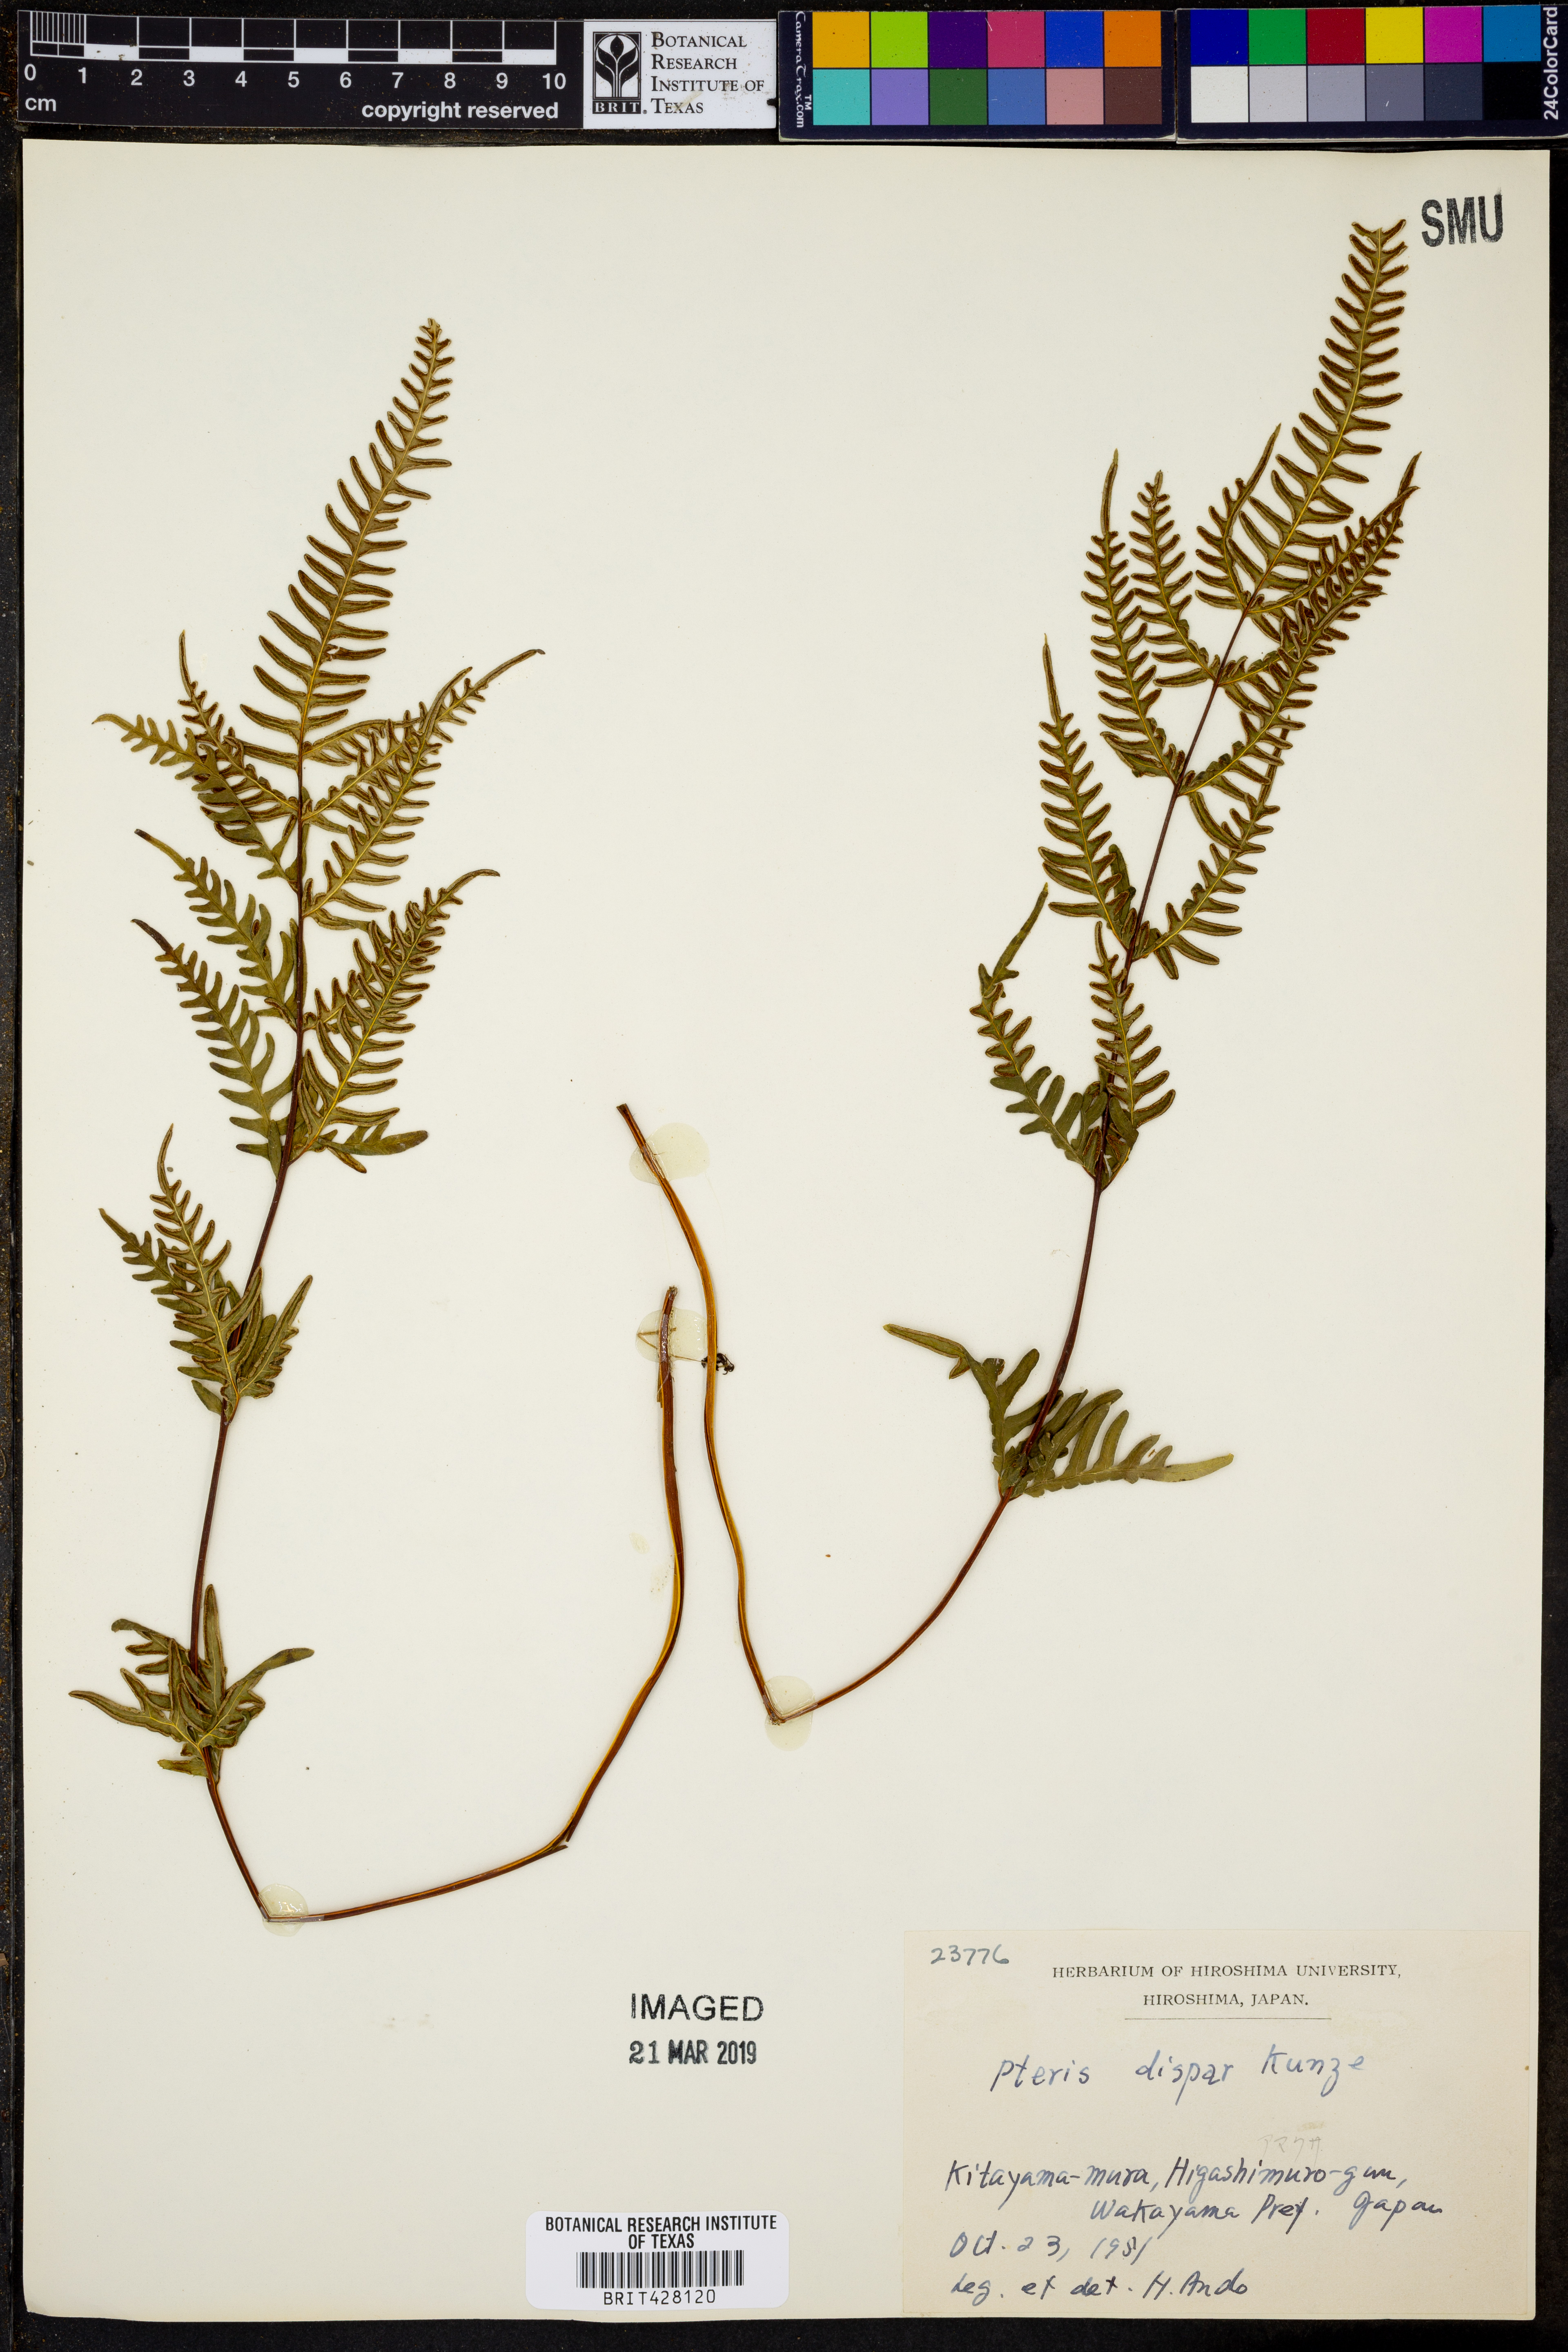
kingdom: Plantae
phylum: Tracheophyta
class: Polypodiopsida
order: Polypodiales
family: Pteridaceae
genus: Pteris
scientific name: Pteris dispar
